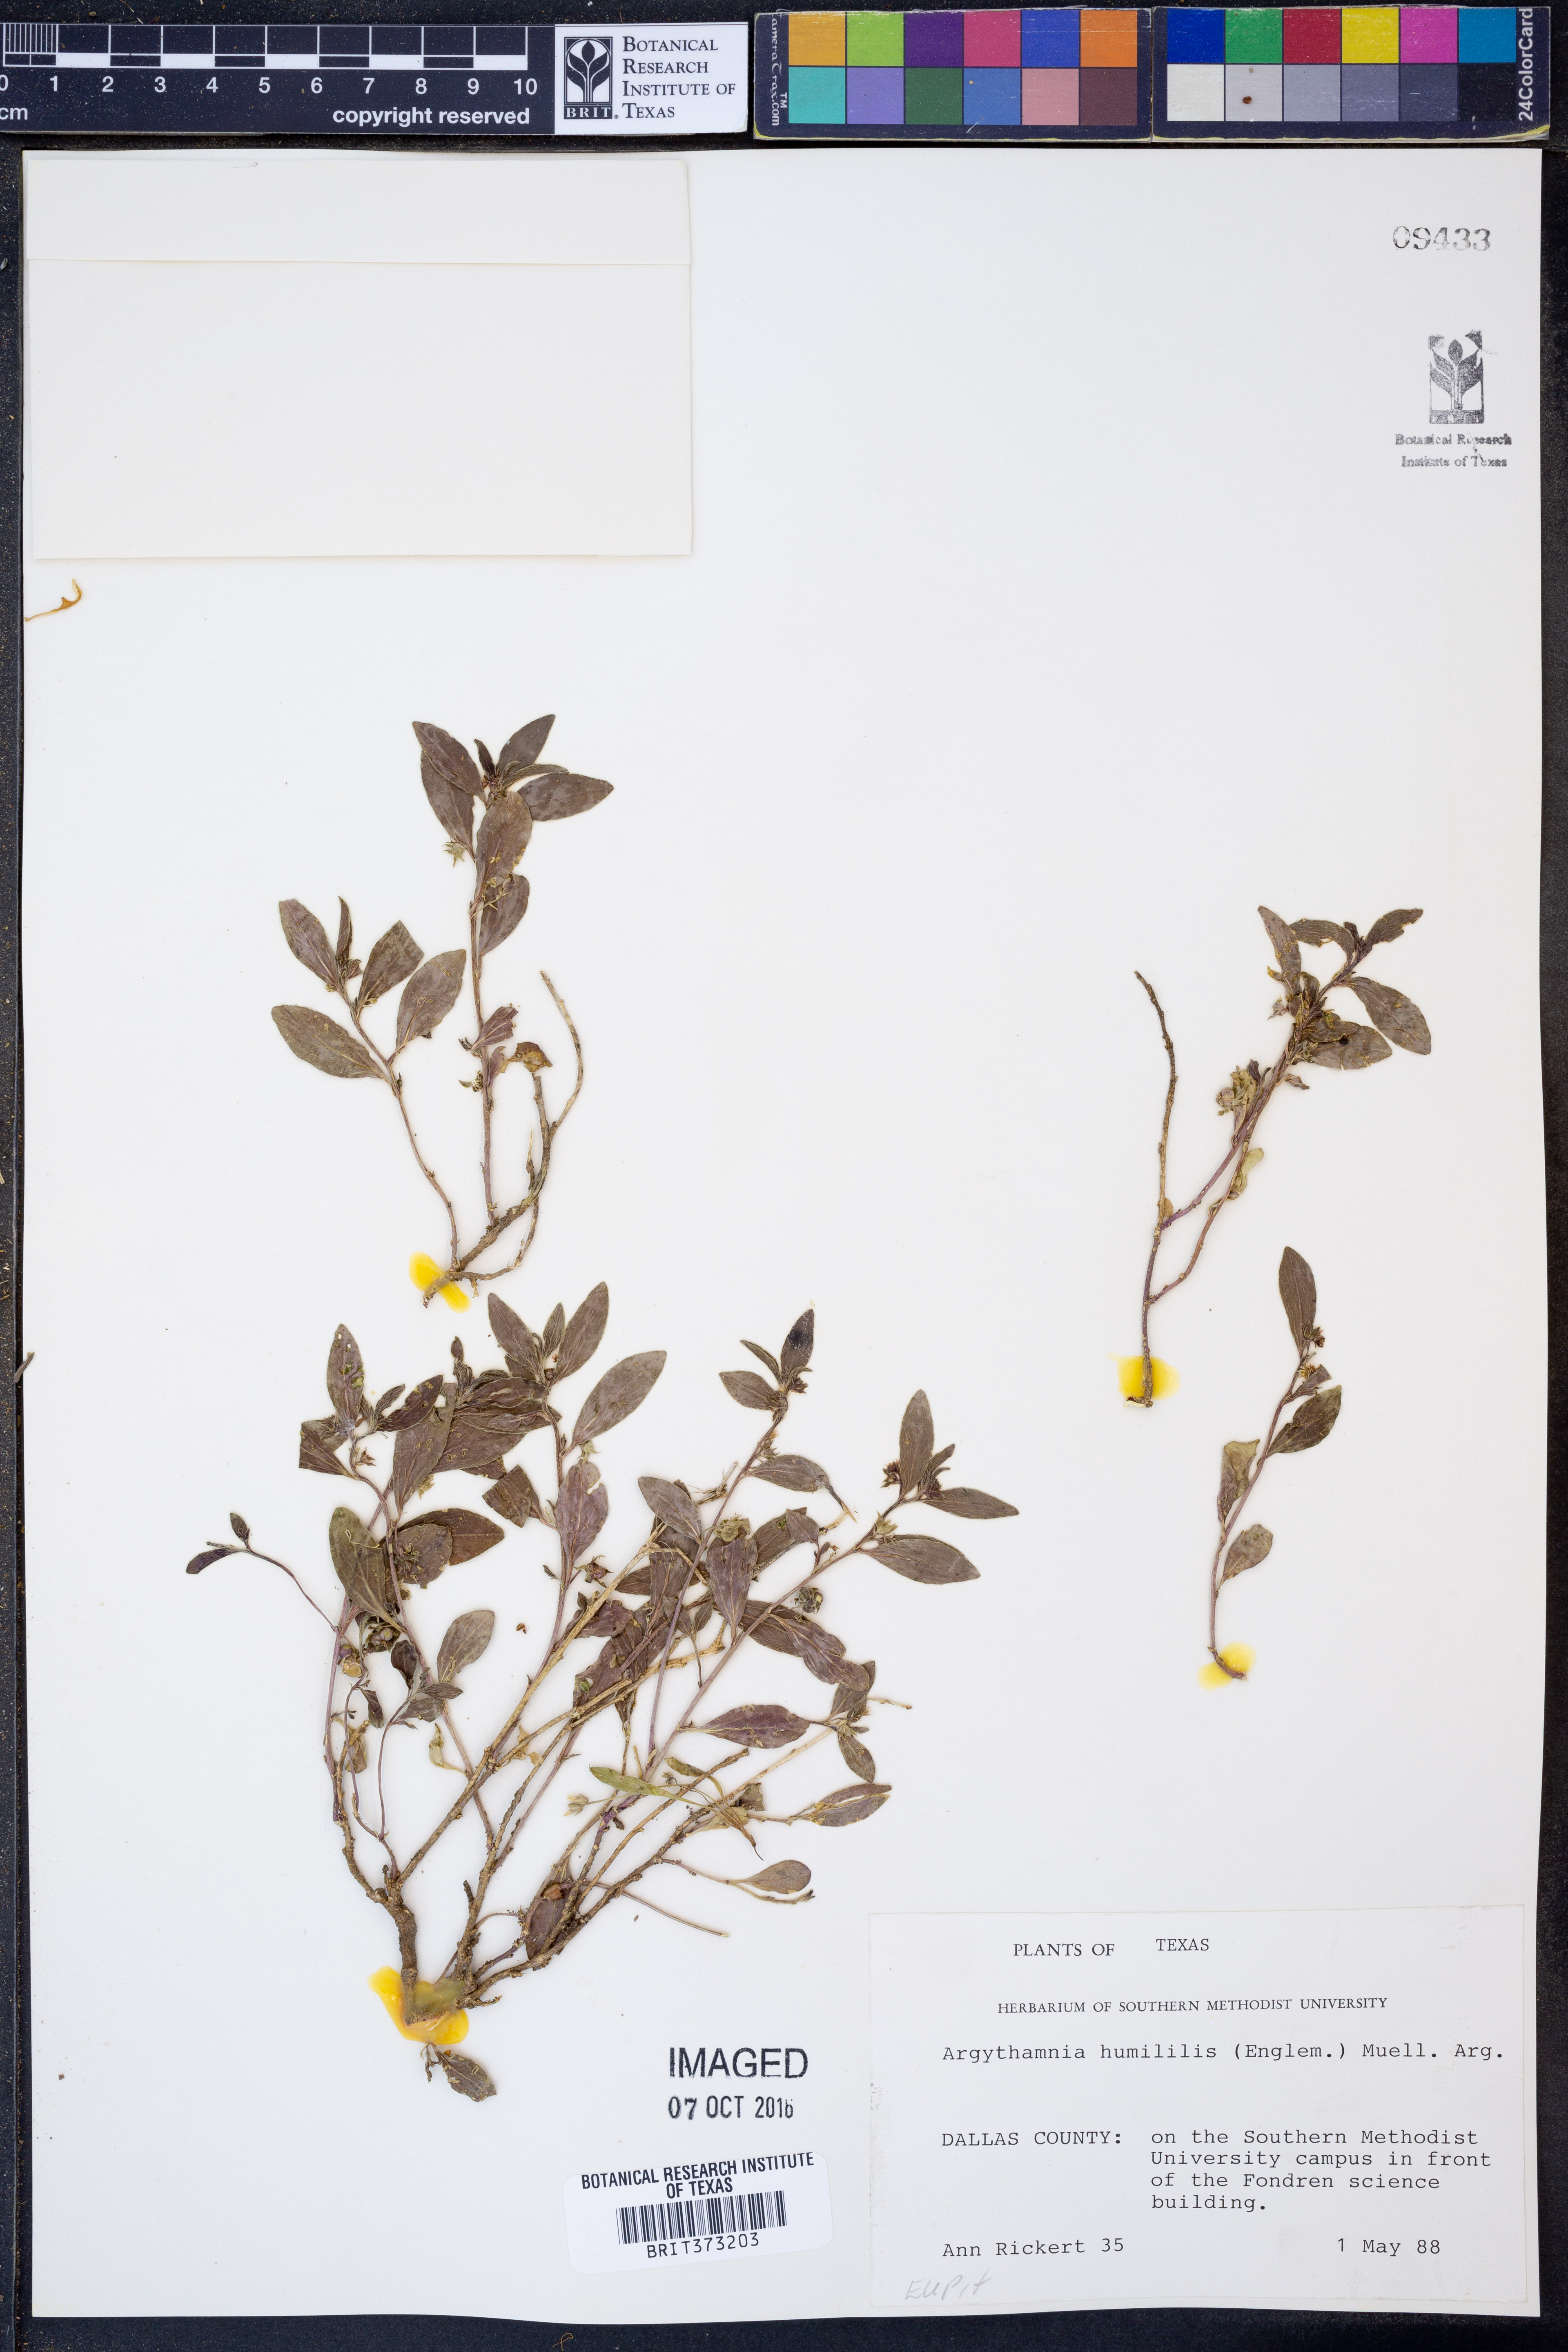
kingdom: Plantae
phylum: Tracheophyta
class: Magnoliopsida
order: Malpighiales
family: Euphorbiaceae
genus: Ditaxis
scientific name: Ditaxis humilis
